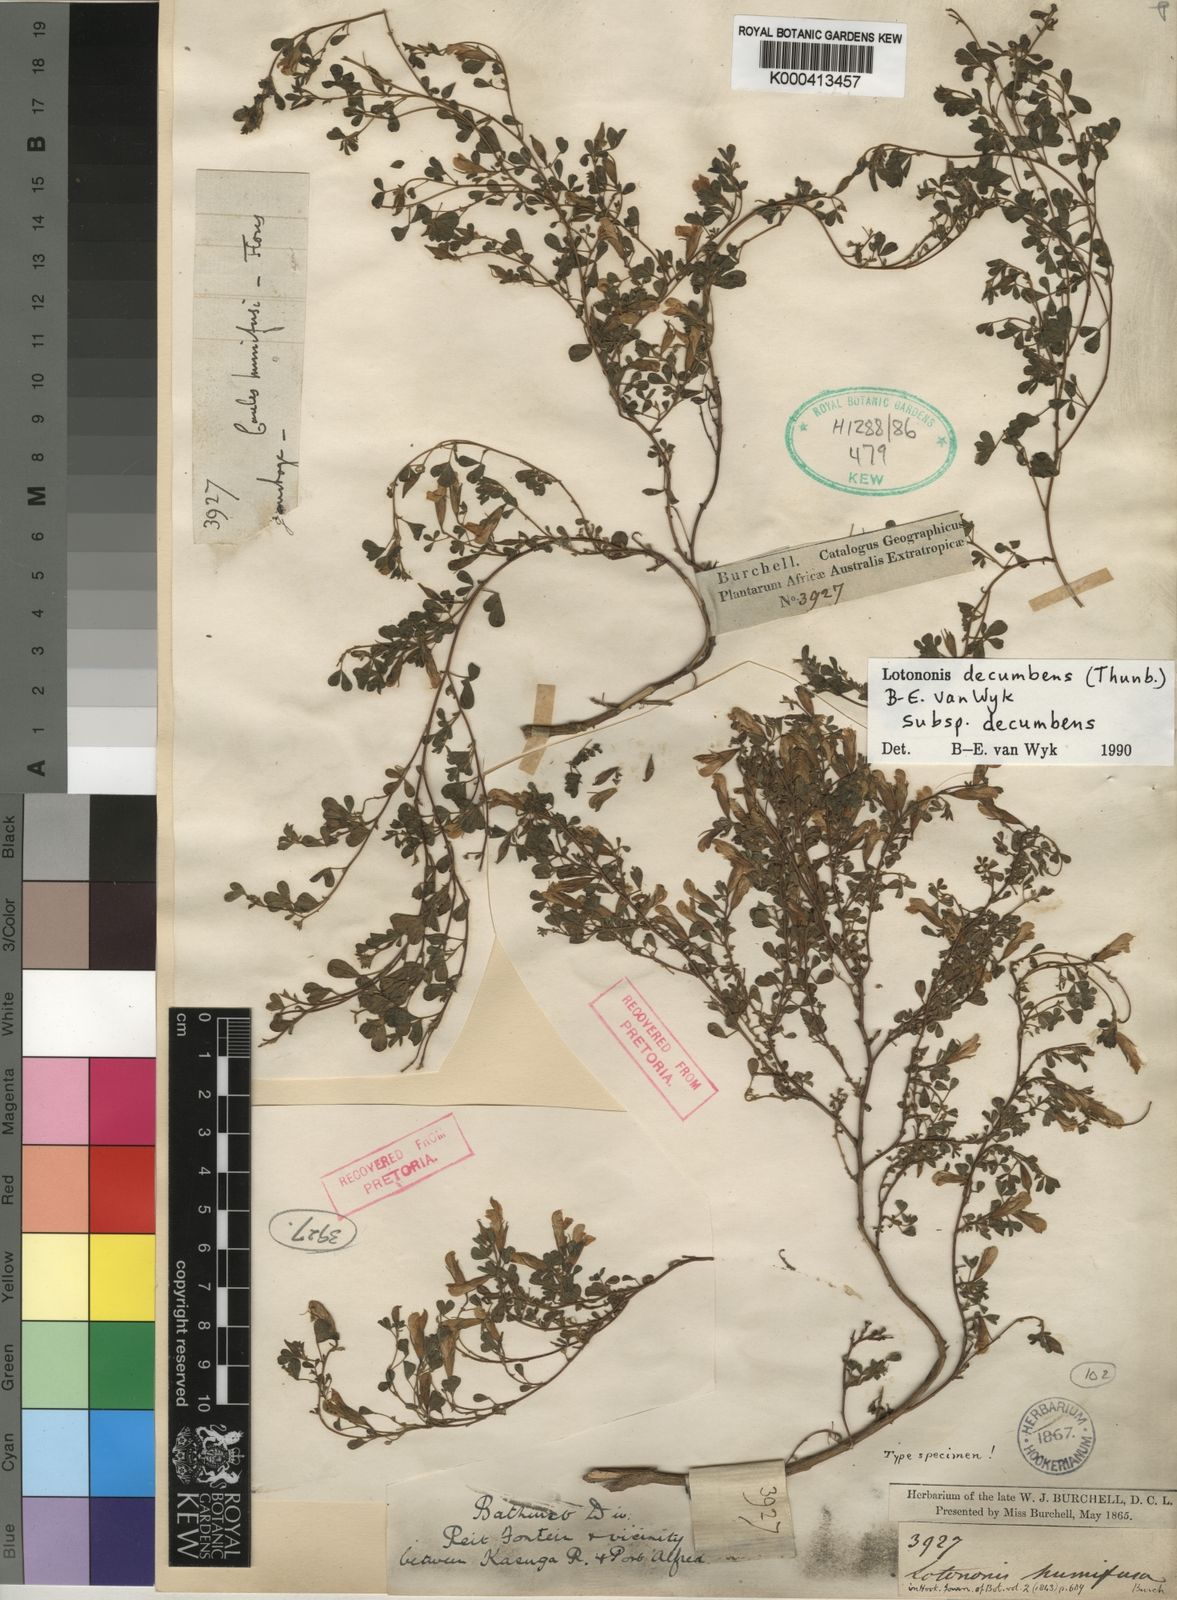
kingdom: Plantae
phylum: Tracheophyta
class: Magnoliopsida
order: Fabales
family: Fabaceae
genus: Leobordea
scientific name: Leobordea decumbens
